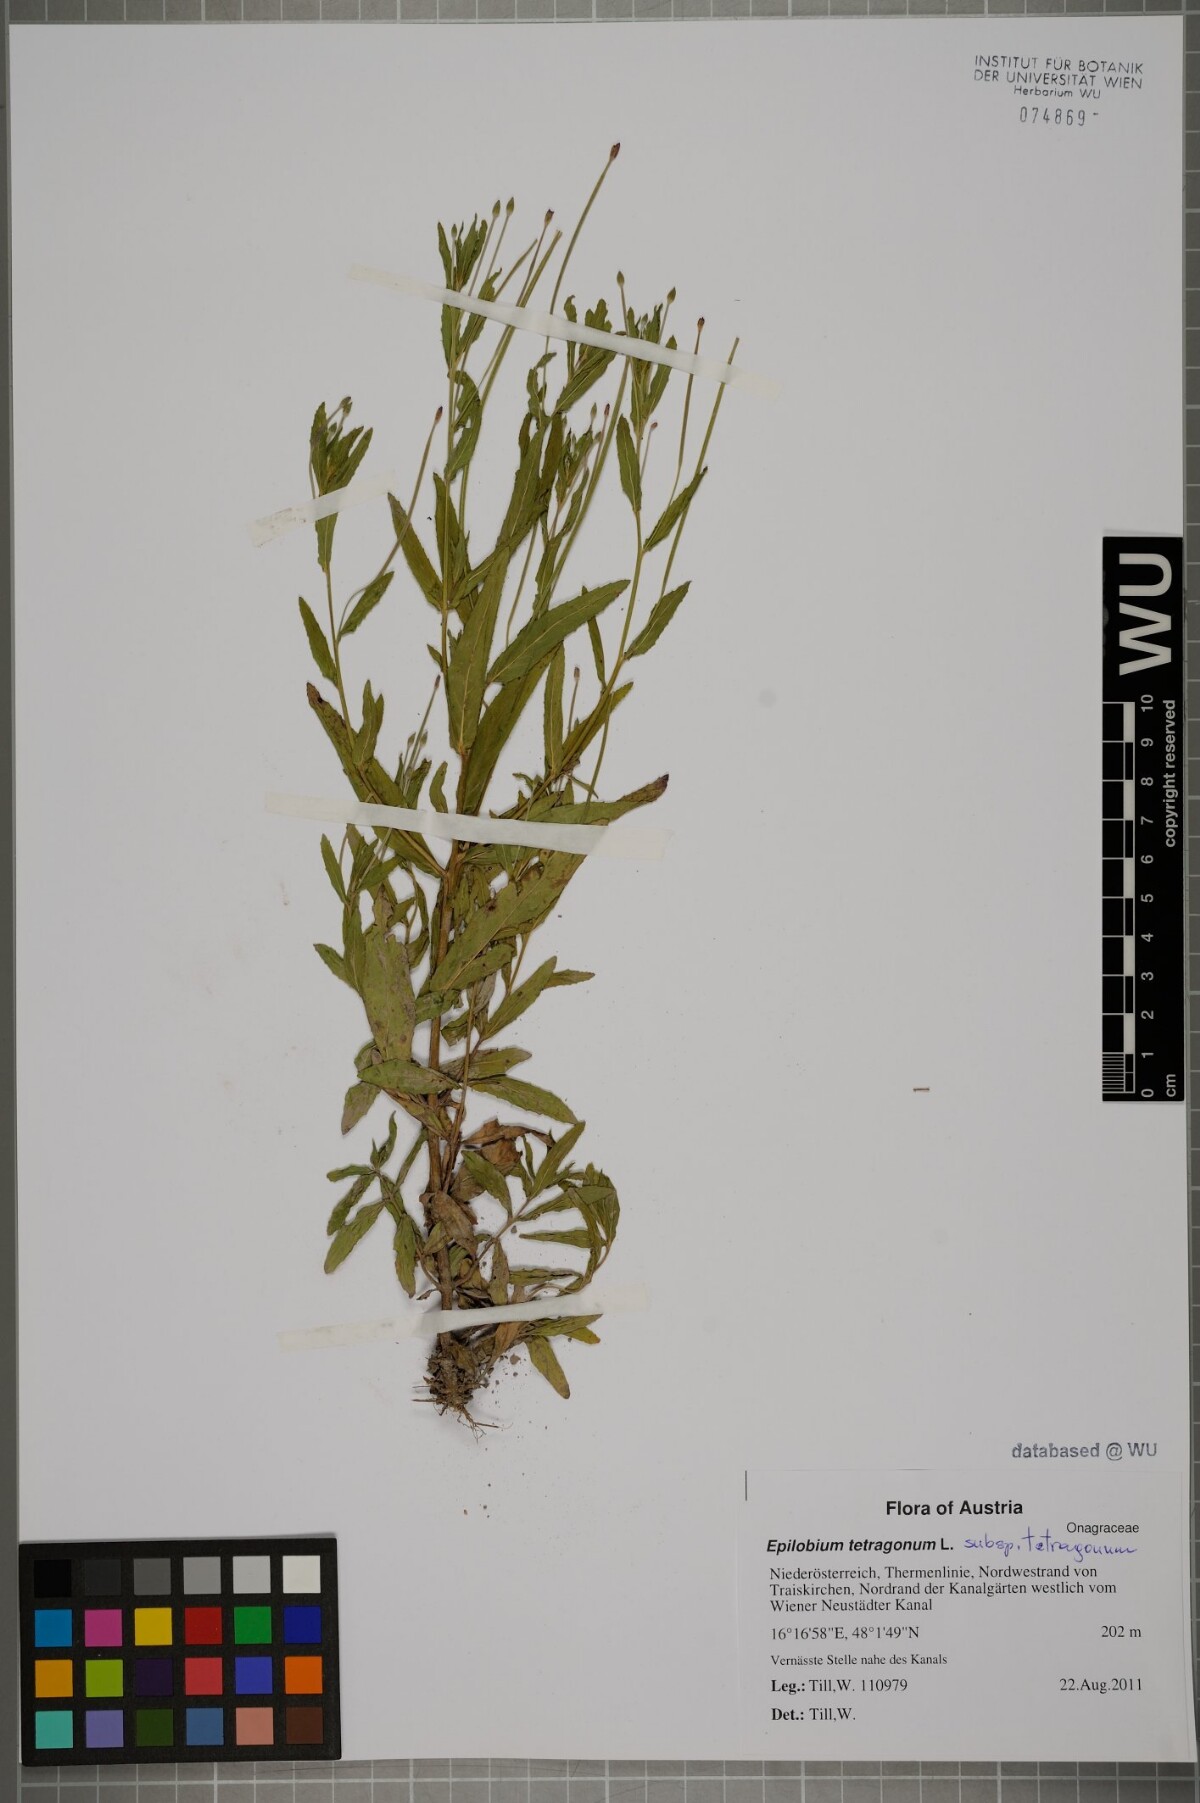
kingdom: Plantae
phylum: Tracheophyta
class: Magnoliopsida
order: Myrtales
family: Onagraceae
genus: Epilobium
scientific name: Epilobium tetragonum
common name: Square-stemmed willowherb
